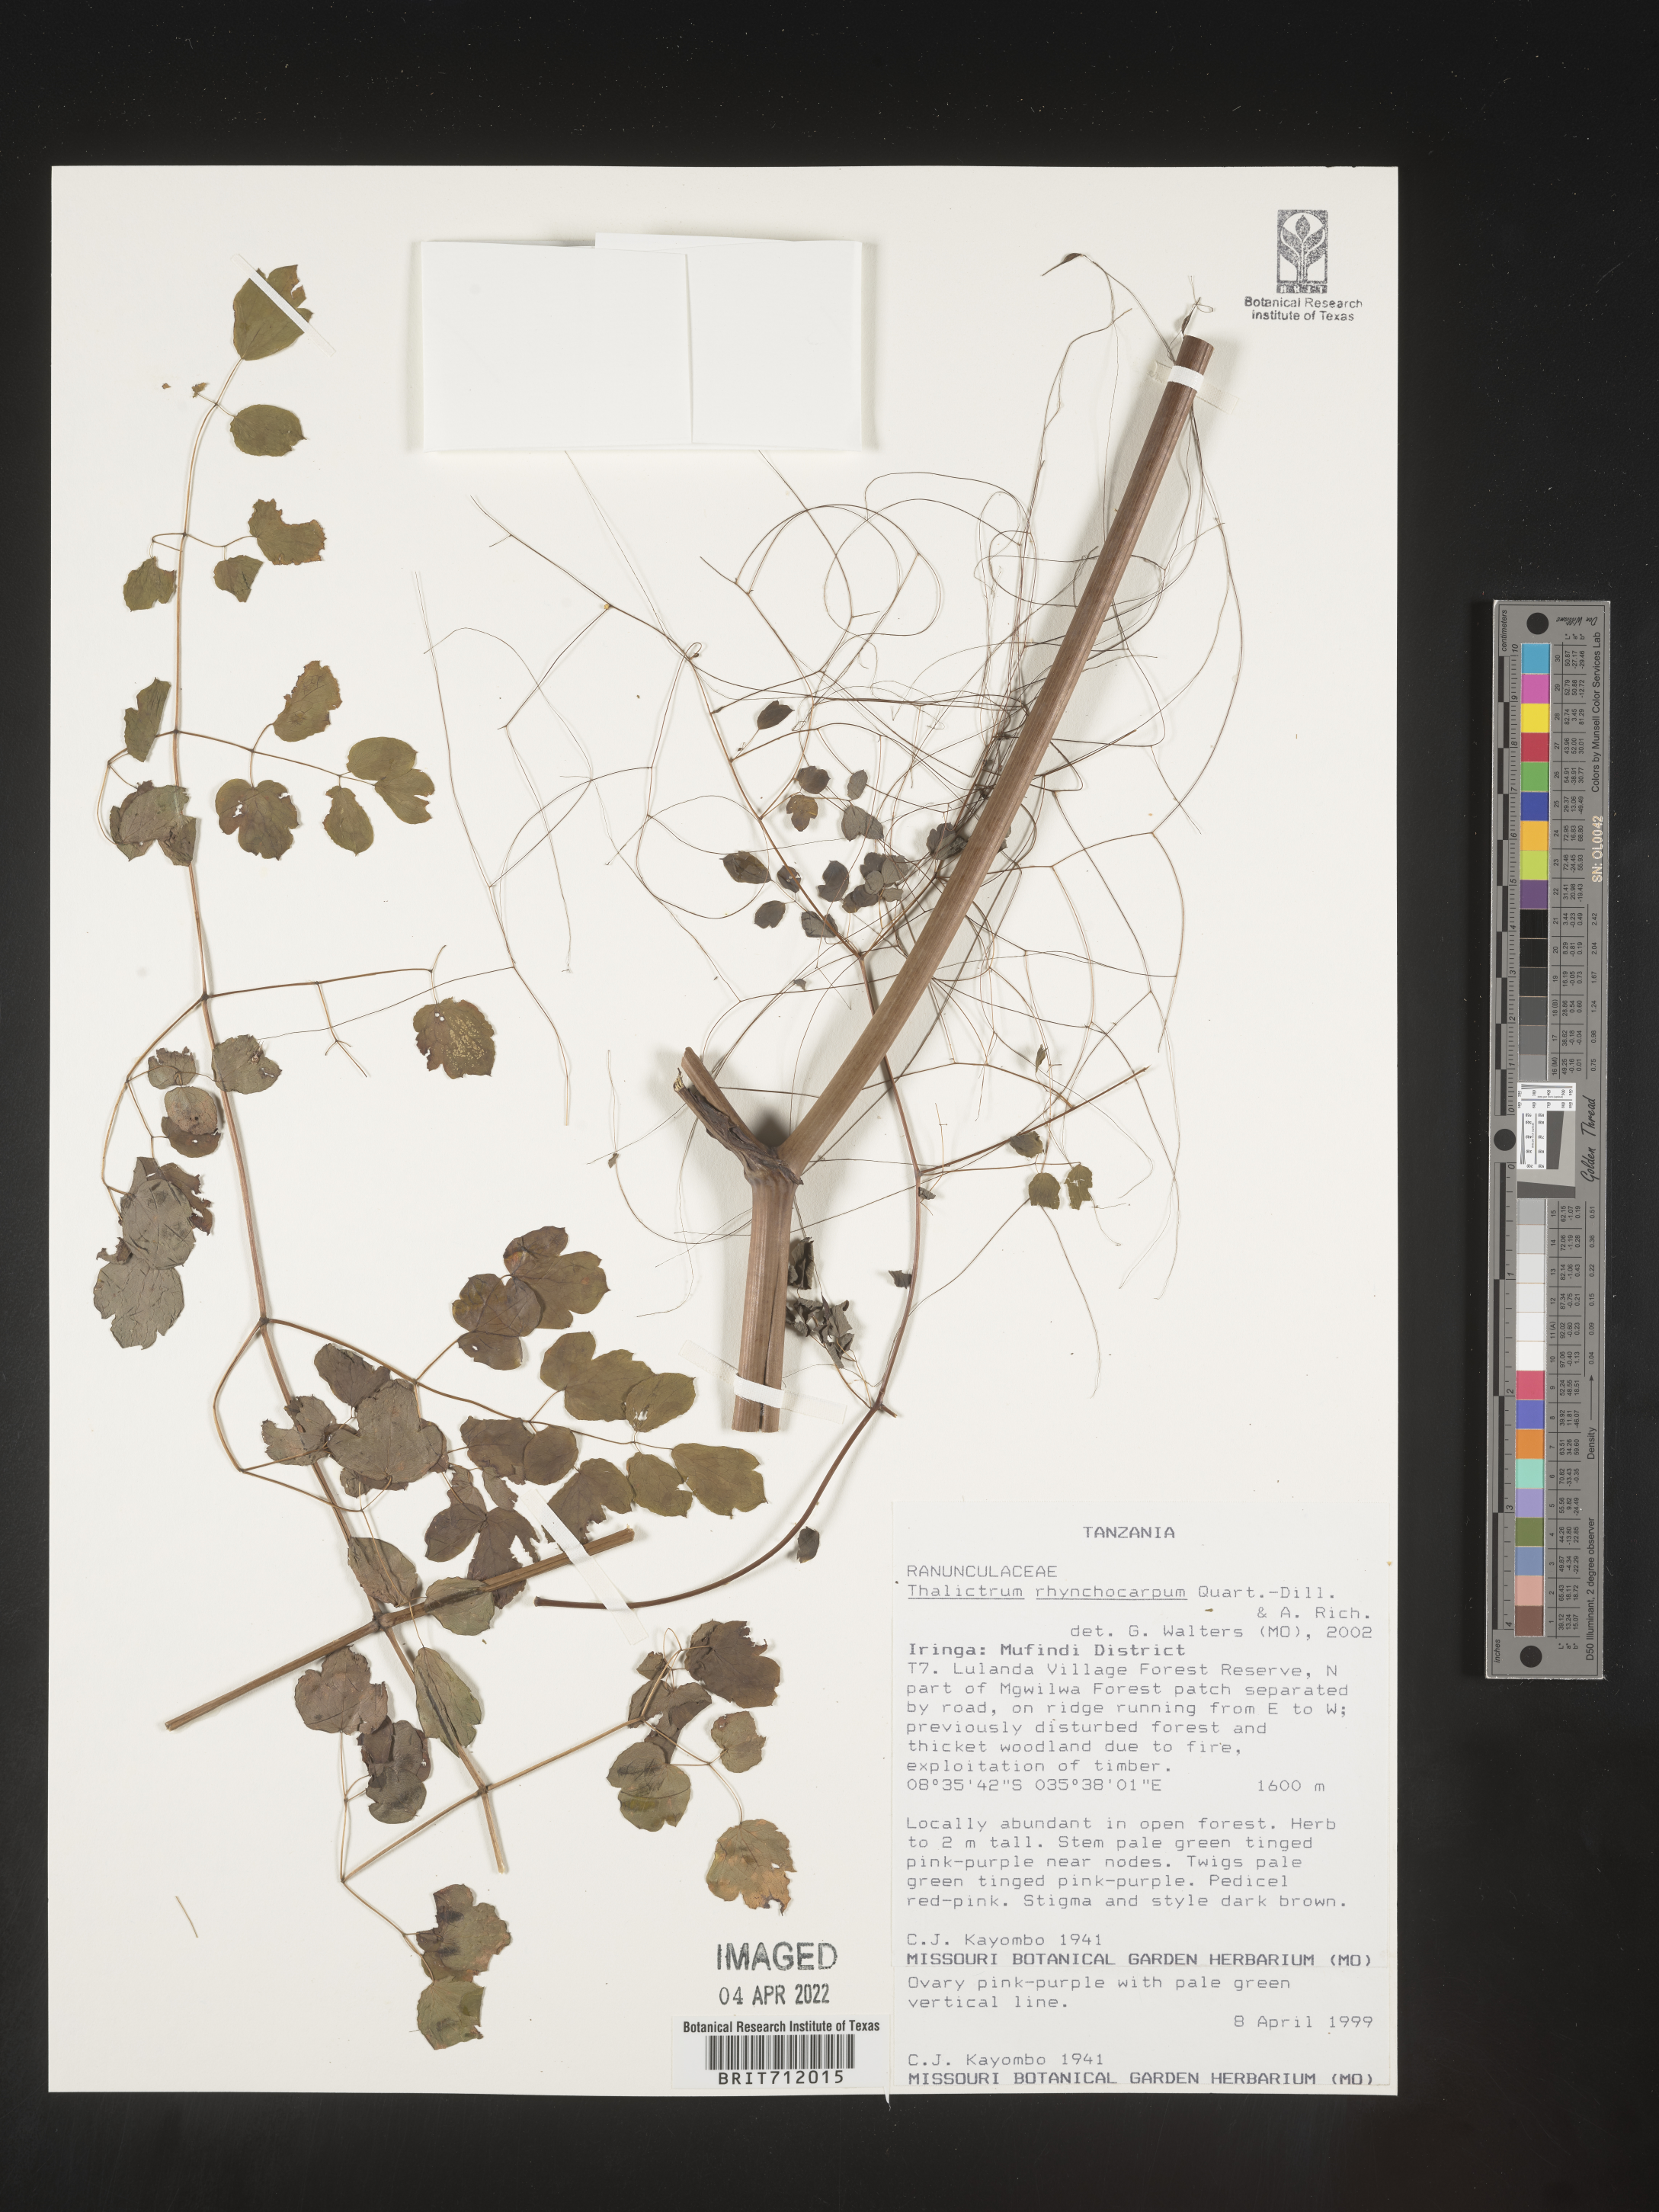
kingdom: Plantae
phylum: Tracheophyta
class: Magnoliopsida
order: Ranunculales
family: Ranunculaceae
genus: Thalictrum
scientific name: Thalictrum
